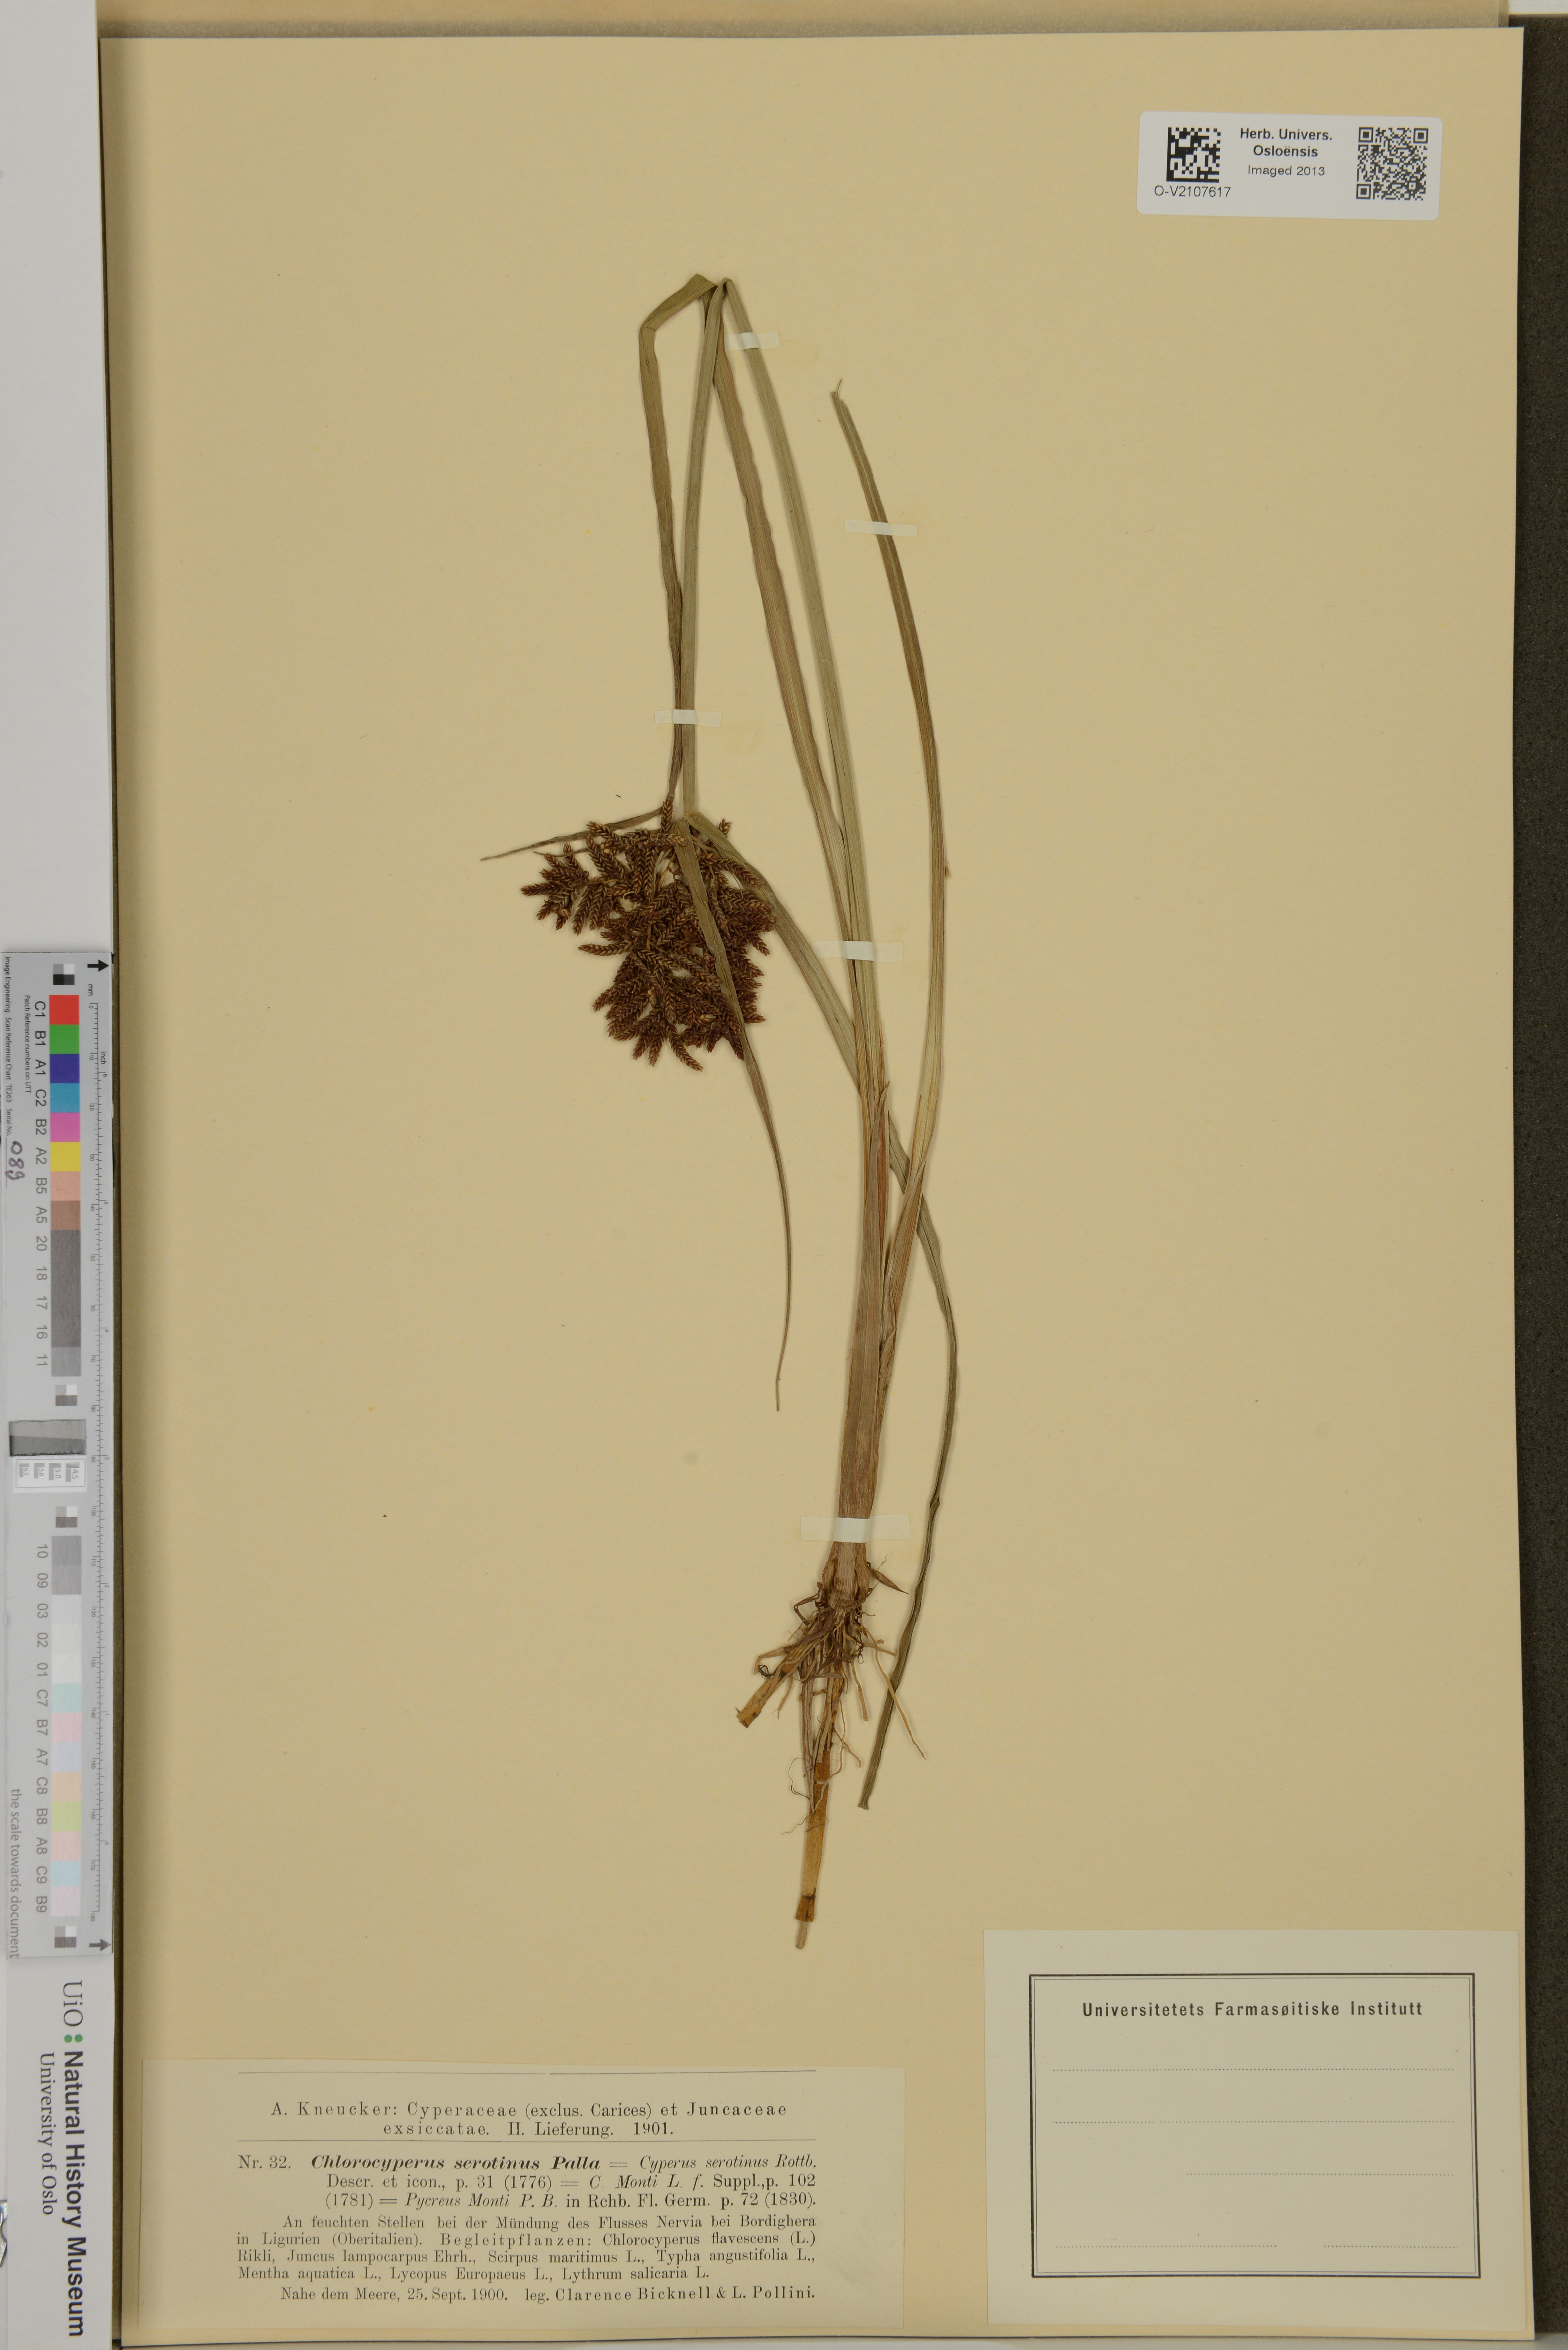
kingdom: Plantae
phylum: Tracheophyta
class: Liliopsida
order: Poales
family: Cyperaceae
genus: Cyperus
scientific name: Cyperus serotinus
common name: Tidalmarsh flatsedge
